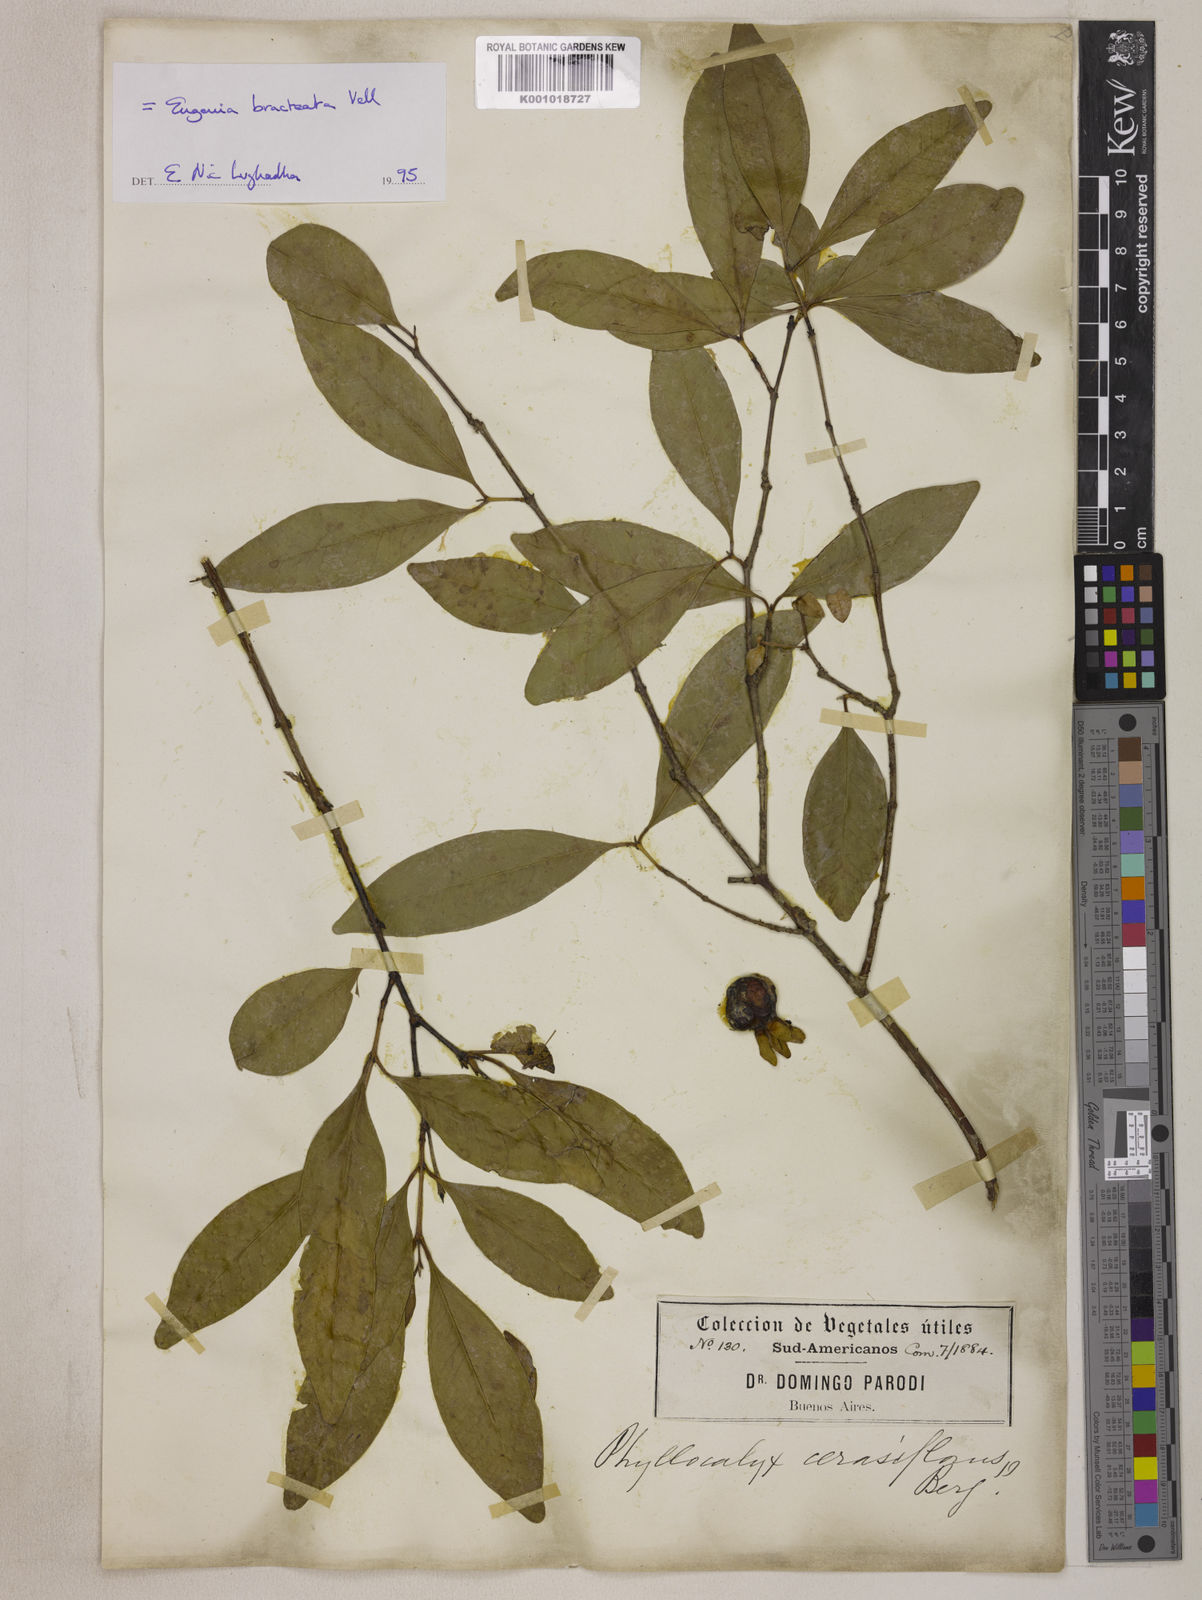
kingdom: Plantae
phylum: Tracheophyta
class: Magnoliopsida
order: Myrtales
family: Myrtaceae
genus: Eugenia
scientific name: Eugenia involucrata
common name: Cherry-of-the-rio grande
